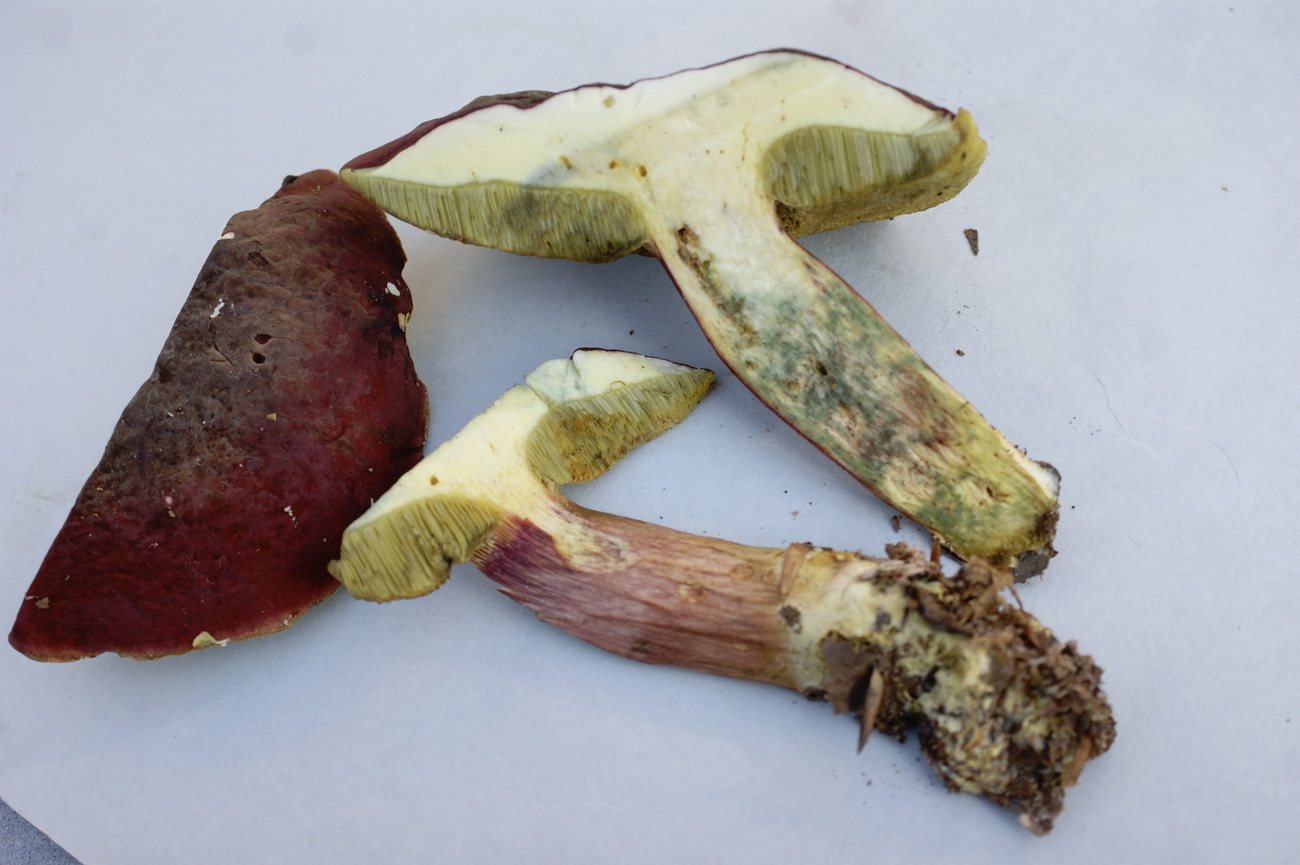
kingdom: Fungi
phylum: Basidiomycota
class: Agaricomycetes
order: Boletales
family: Boletaceae
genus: Hortiboletus
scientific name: Hortiboletus rubellus
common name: blodrød rørhat
